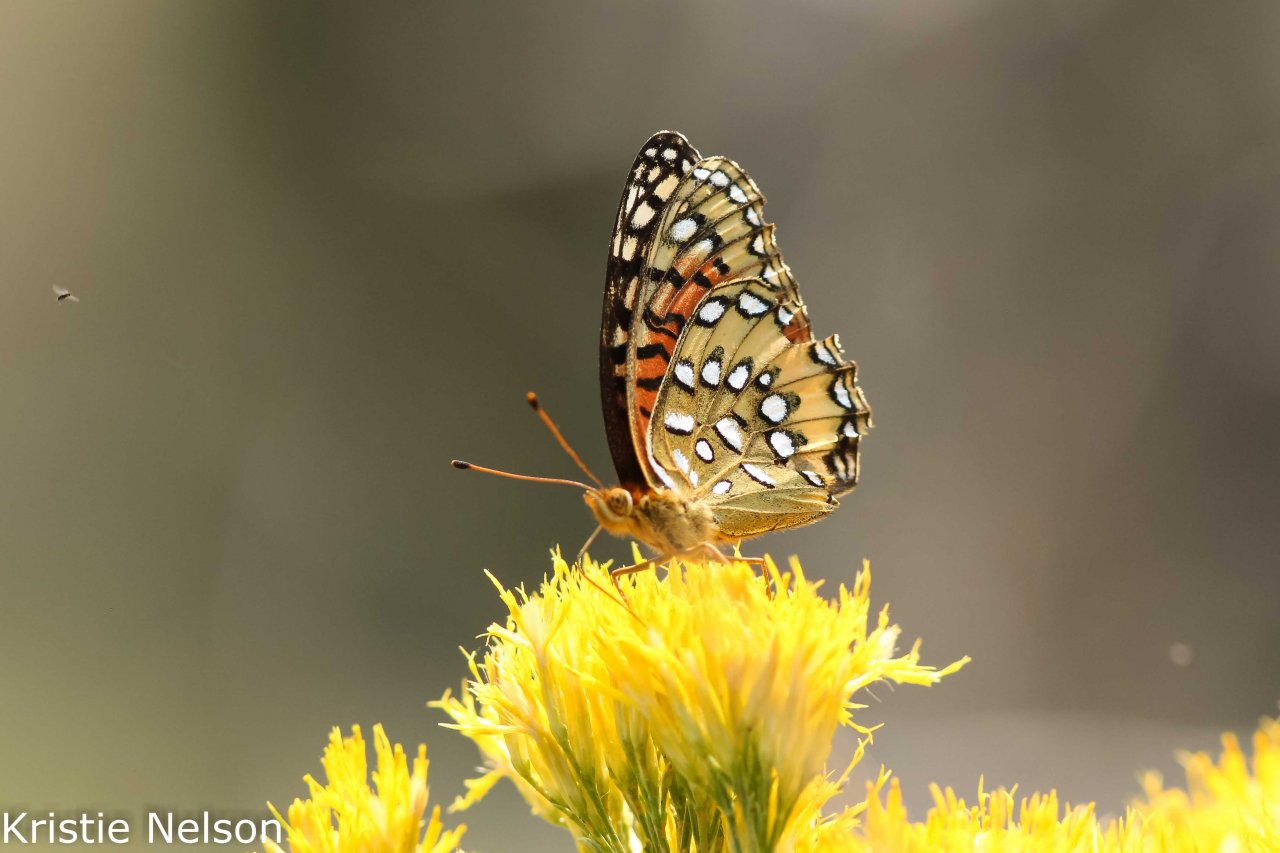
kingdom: Animalia
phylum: Arthropoda
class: Insecta
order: Lepidoptera
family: Nymphalidae
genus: Speyeria
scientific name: Speyeria nokomis
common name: Nokomis Fritillary
